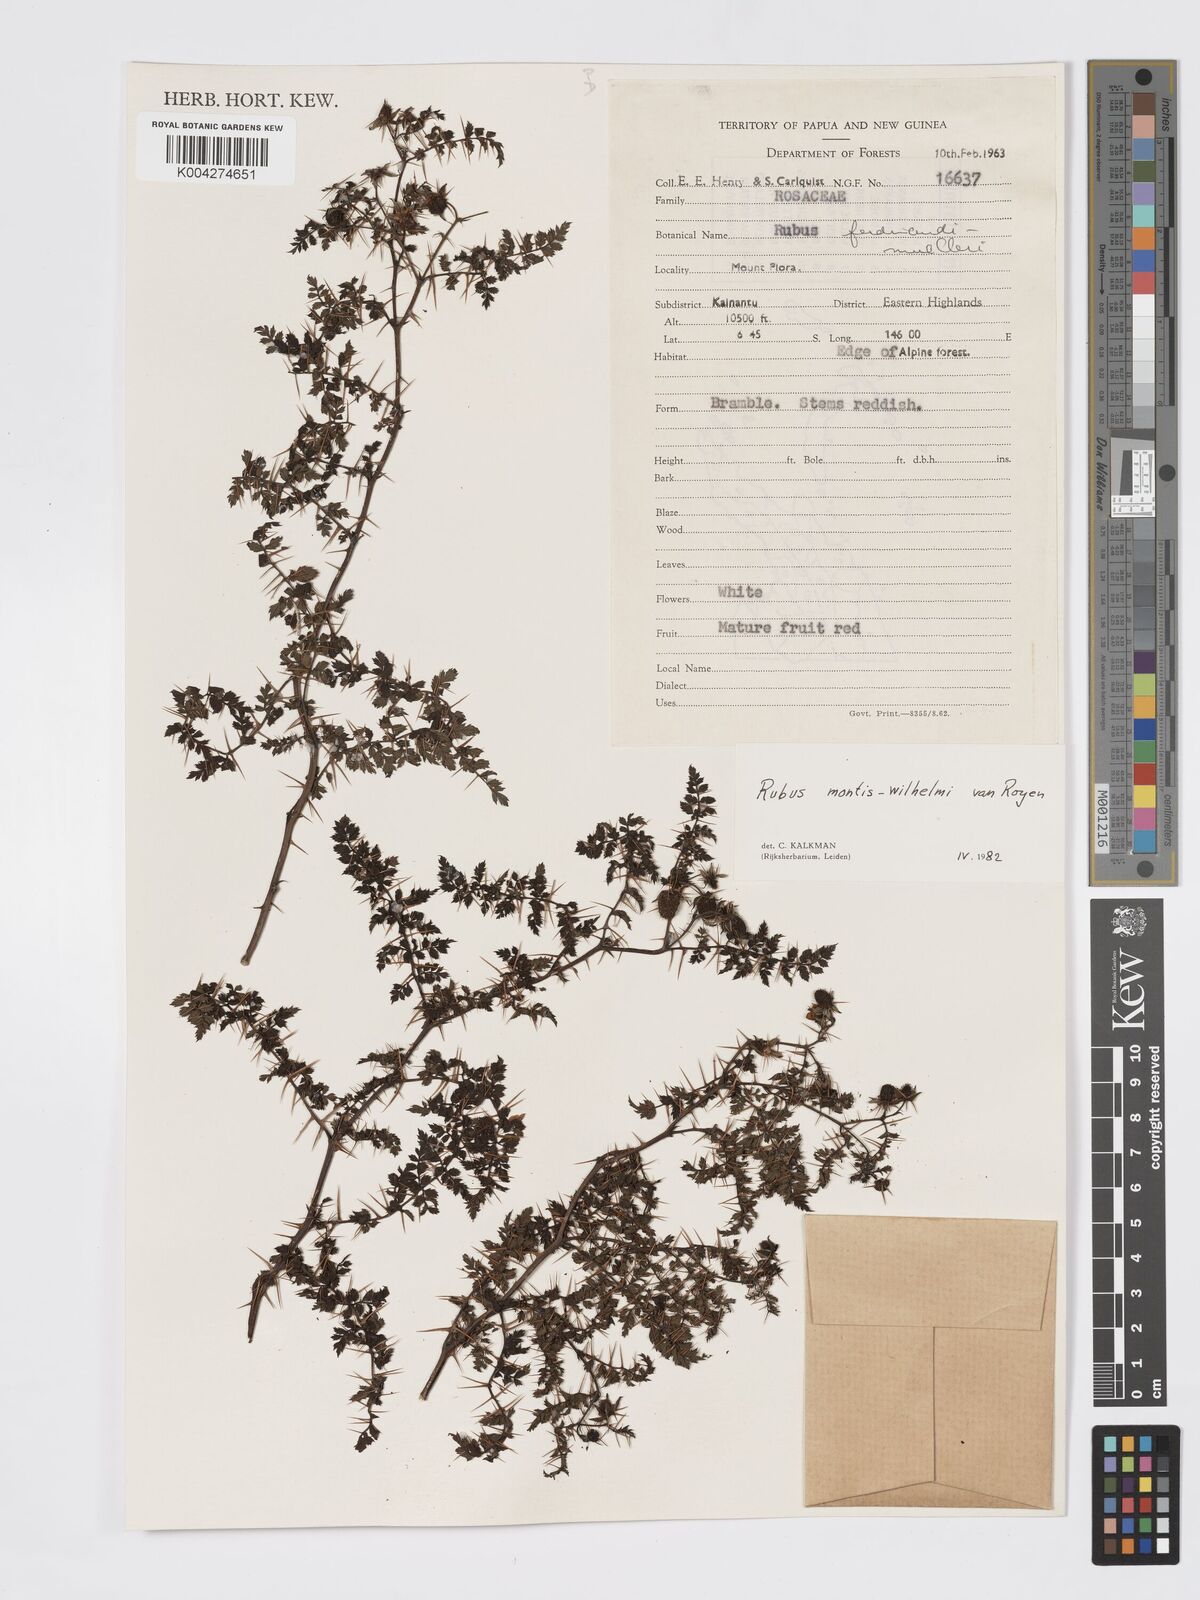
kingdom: Plantae
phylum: Tracheophyta
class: Magnoliopsida
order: Rosales
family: Rosaceae
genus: Rubus
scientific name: Rubus montis-wilhelmii
